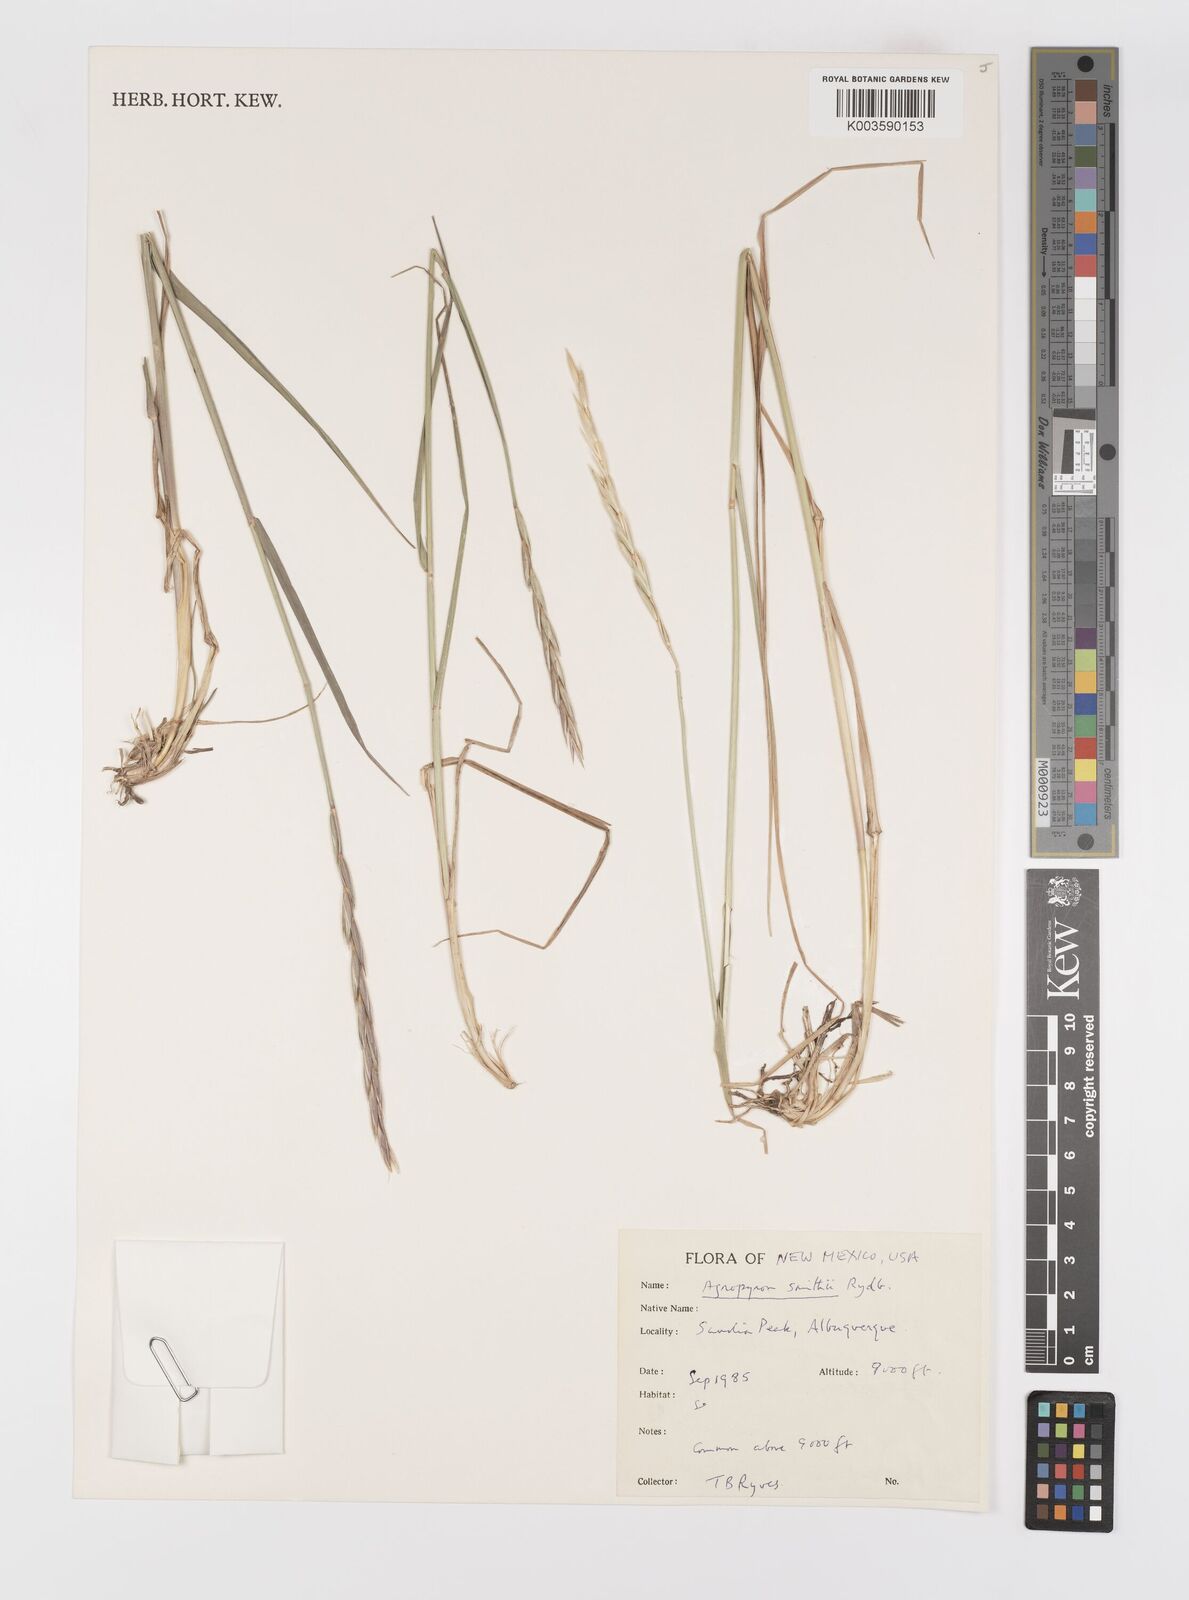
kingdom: Plantae
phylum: Tracheophyta
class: Liliopsida
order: Poales
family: Poaceae
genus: Elymus
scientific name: Elymus smithii
